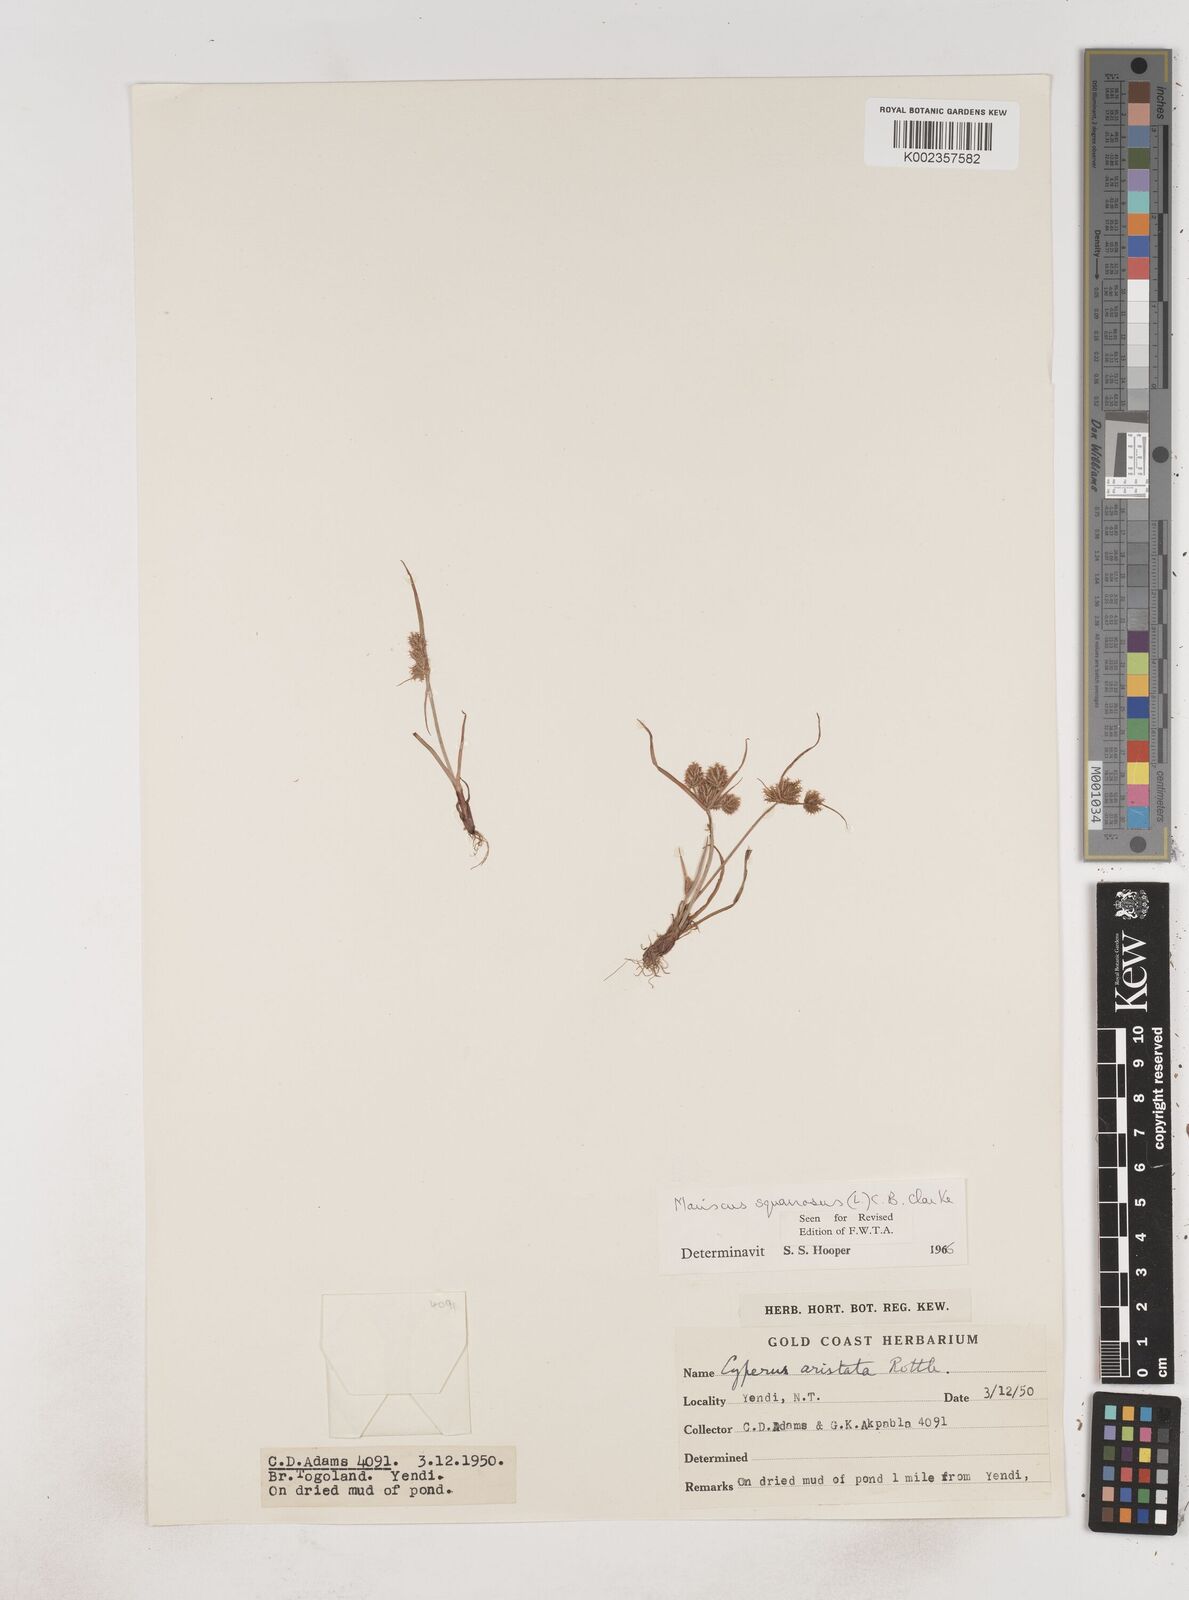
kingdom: Plantae
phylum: Tracheophyta
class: Liliopsida
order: Poales
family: Cyperaceae
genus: Cyperus
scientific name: Cyperus squarrosus
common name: Awned cyperus
